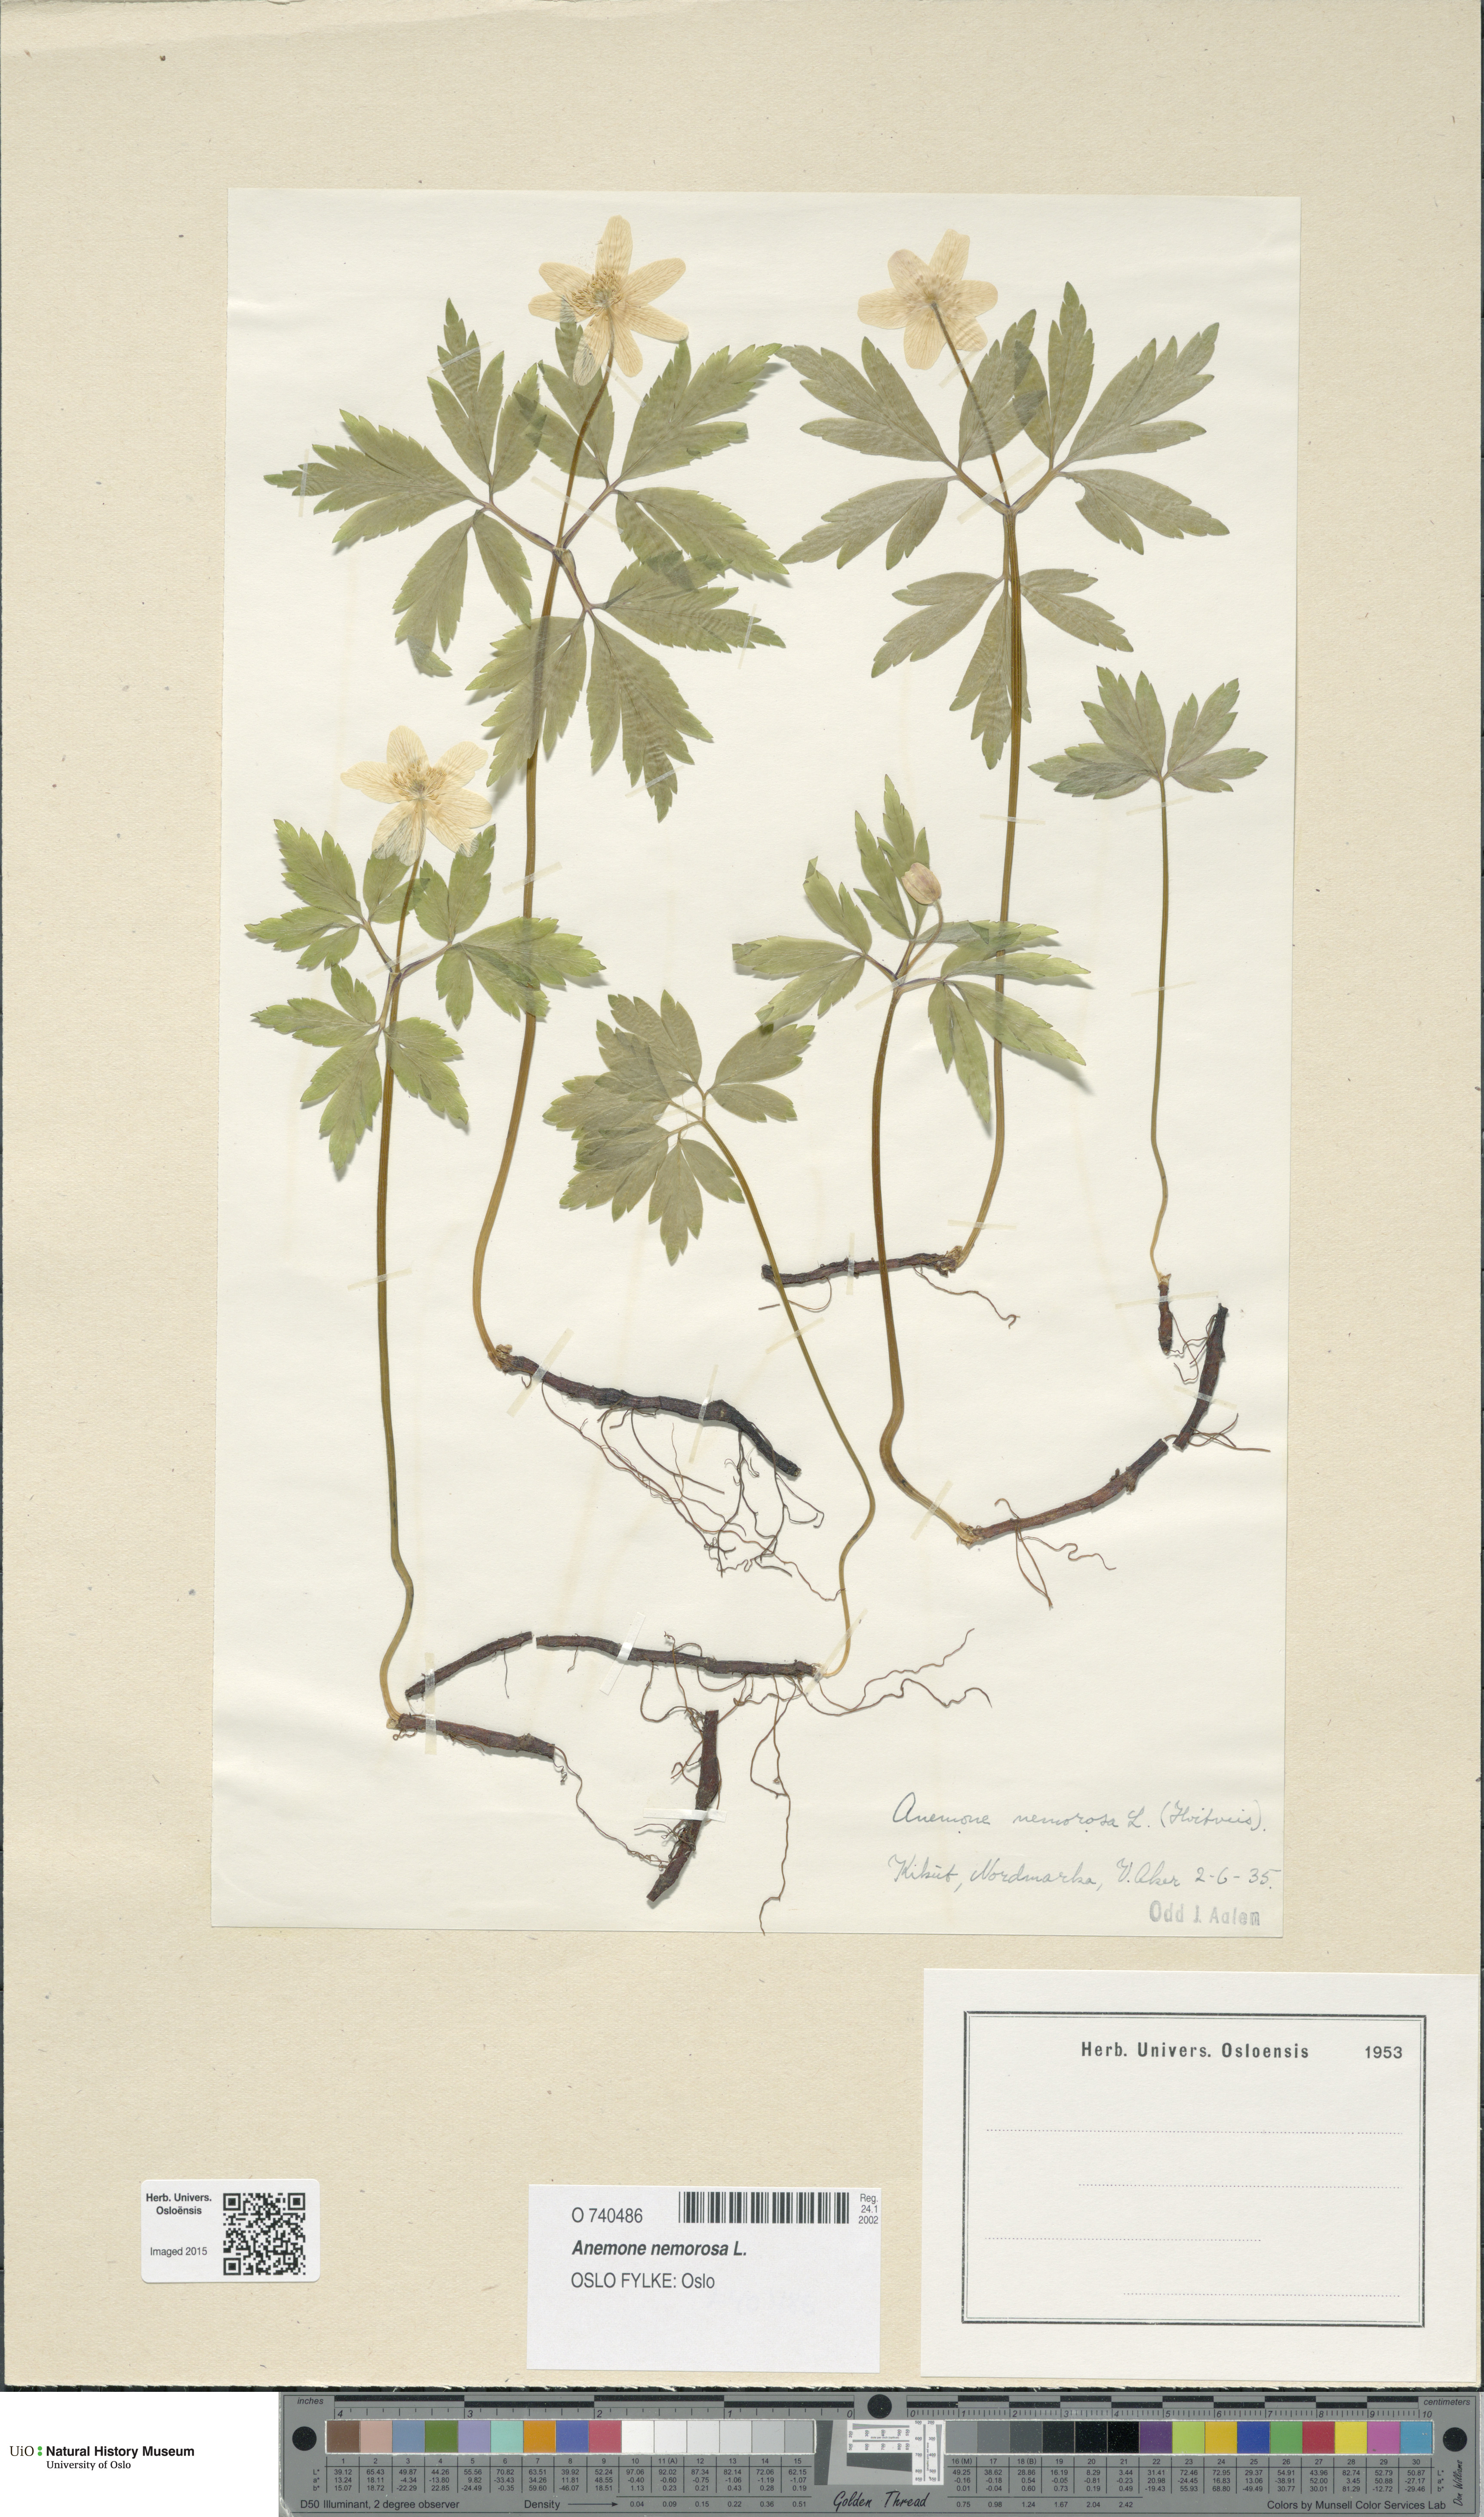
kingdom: Plantae
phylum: Tracheophyta
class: Magnoliopsida
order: Ranunculales
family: Ranunculaceae
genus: Anemone
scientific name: Anemone nemorosa
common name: Wood anemone
